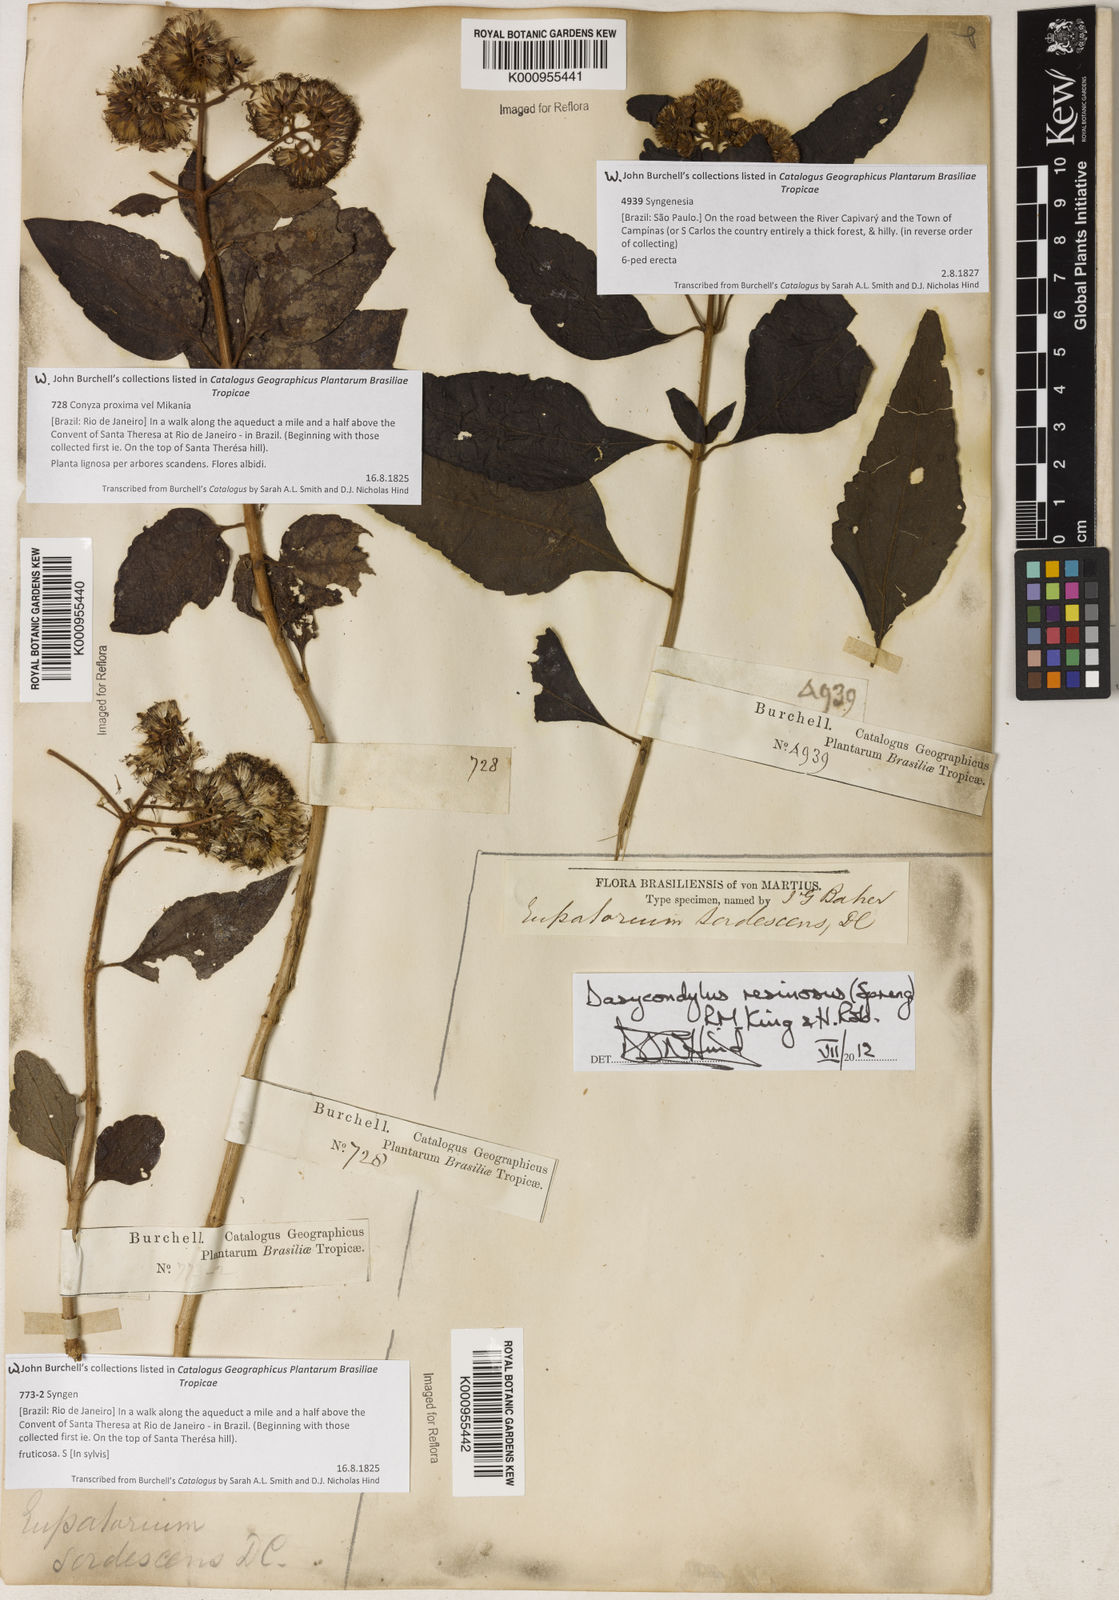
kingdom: Plantae
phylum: Tracheophyta
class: Magnoliopsida
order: Asterales
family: Asteraceae
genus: Dasycondylus
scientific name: Dasycondylus resinosus
